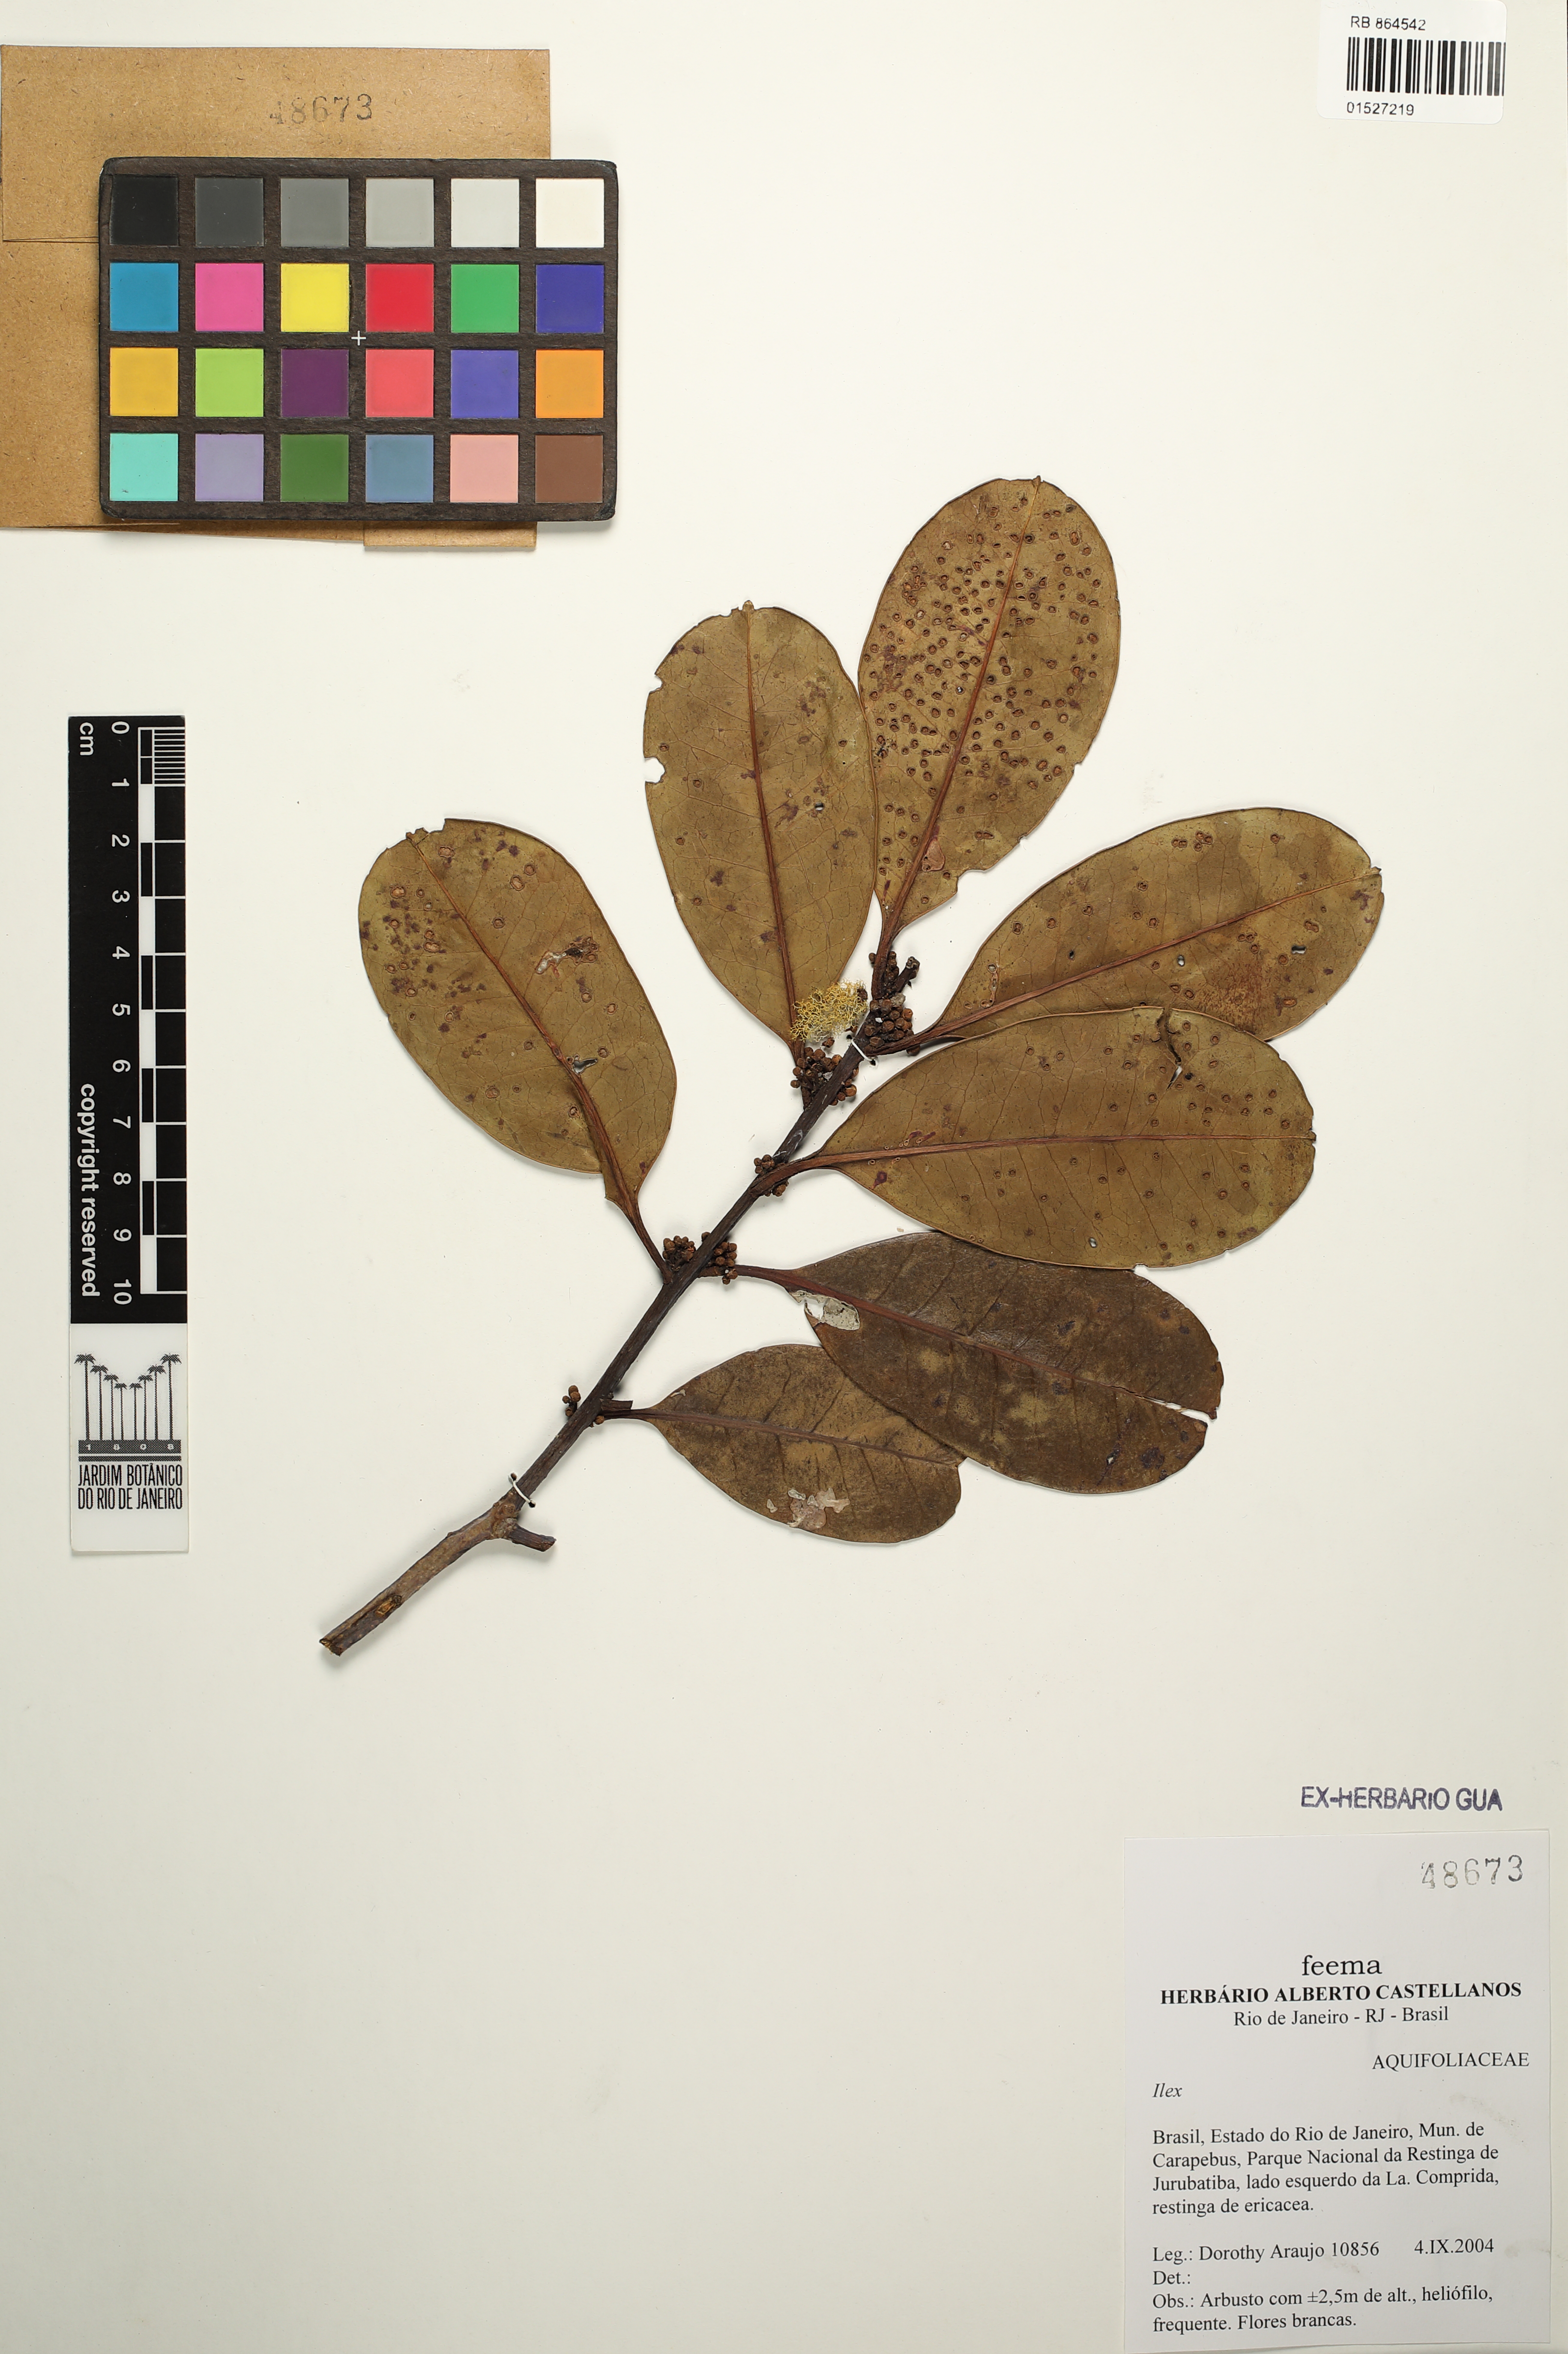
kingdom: Plantae
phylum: Tracheophyta
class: Magnoliopsida
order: Aquifoliales
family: Aquifoliaceae
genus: Ilex
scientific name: Ilex
